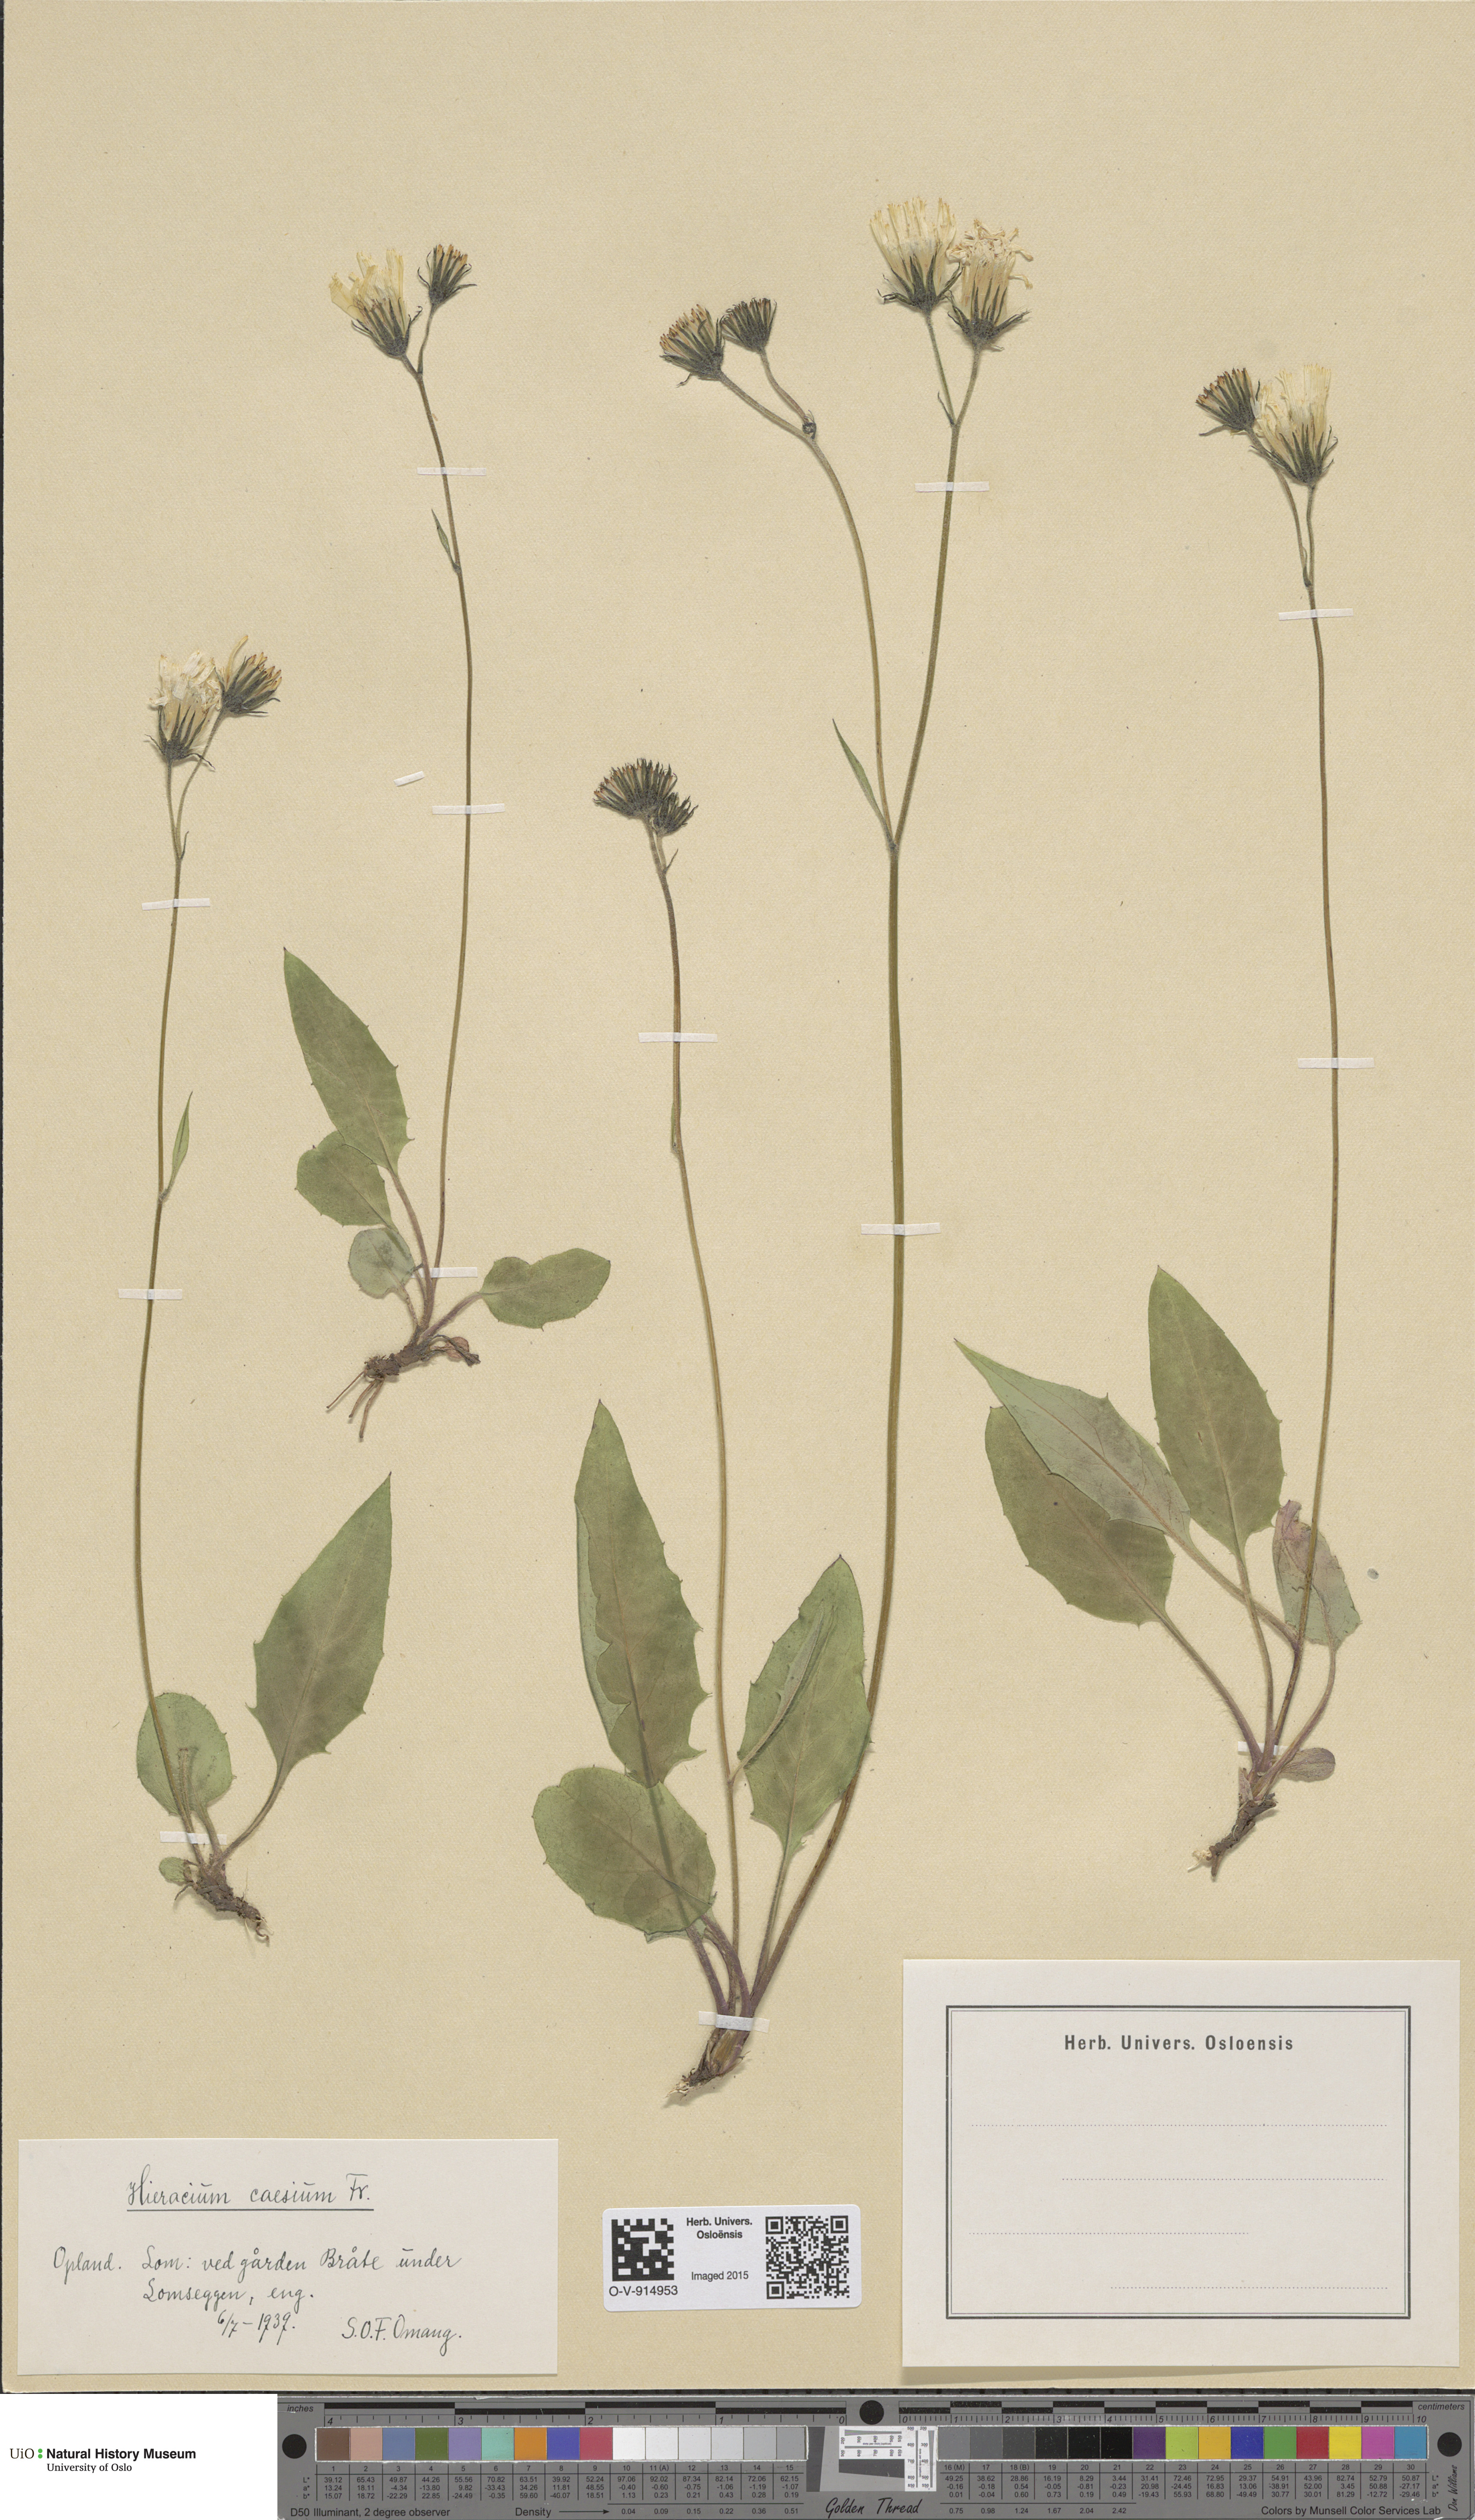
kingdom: Plantae
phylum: Tracheophyta
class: Magnoliopsida
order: Asterales
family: Asteraceae
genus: Hieracium
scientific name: Hieracium caesium
